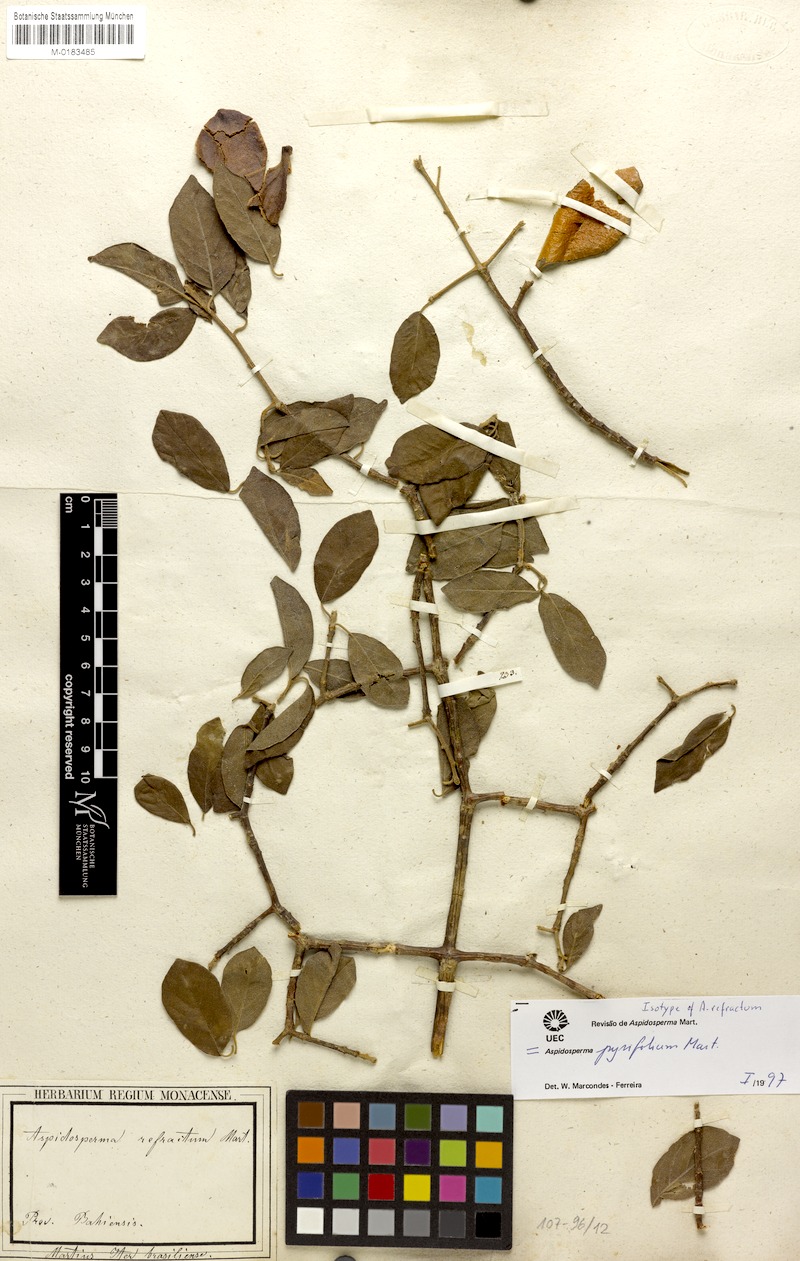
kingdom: Plantae
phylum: Tracheophyta
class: Magnoliopsida
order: Gentianales
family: Apocynaceae
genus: Aspidosperma
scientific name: Aspidosperma pyrifolium
